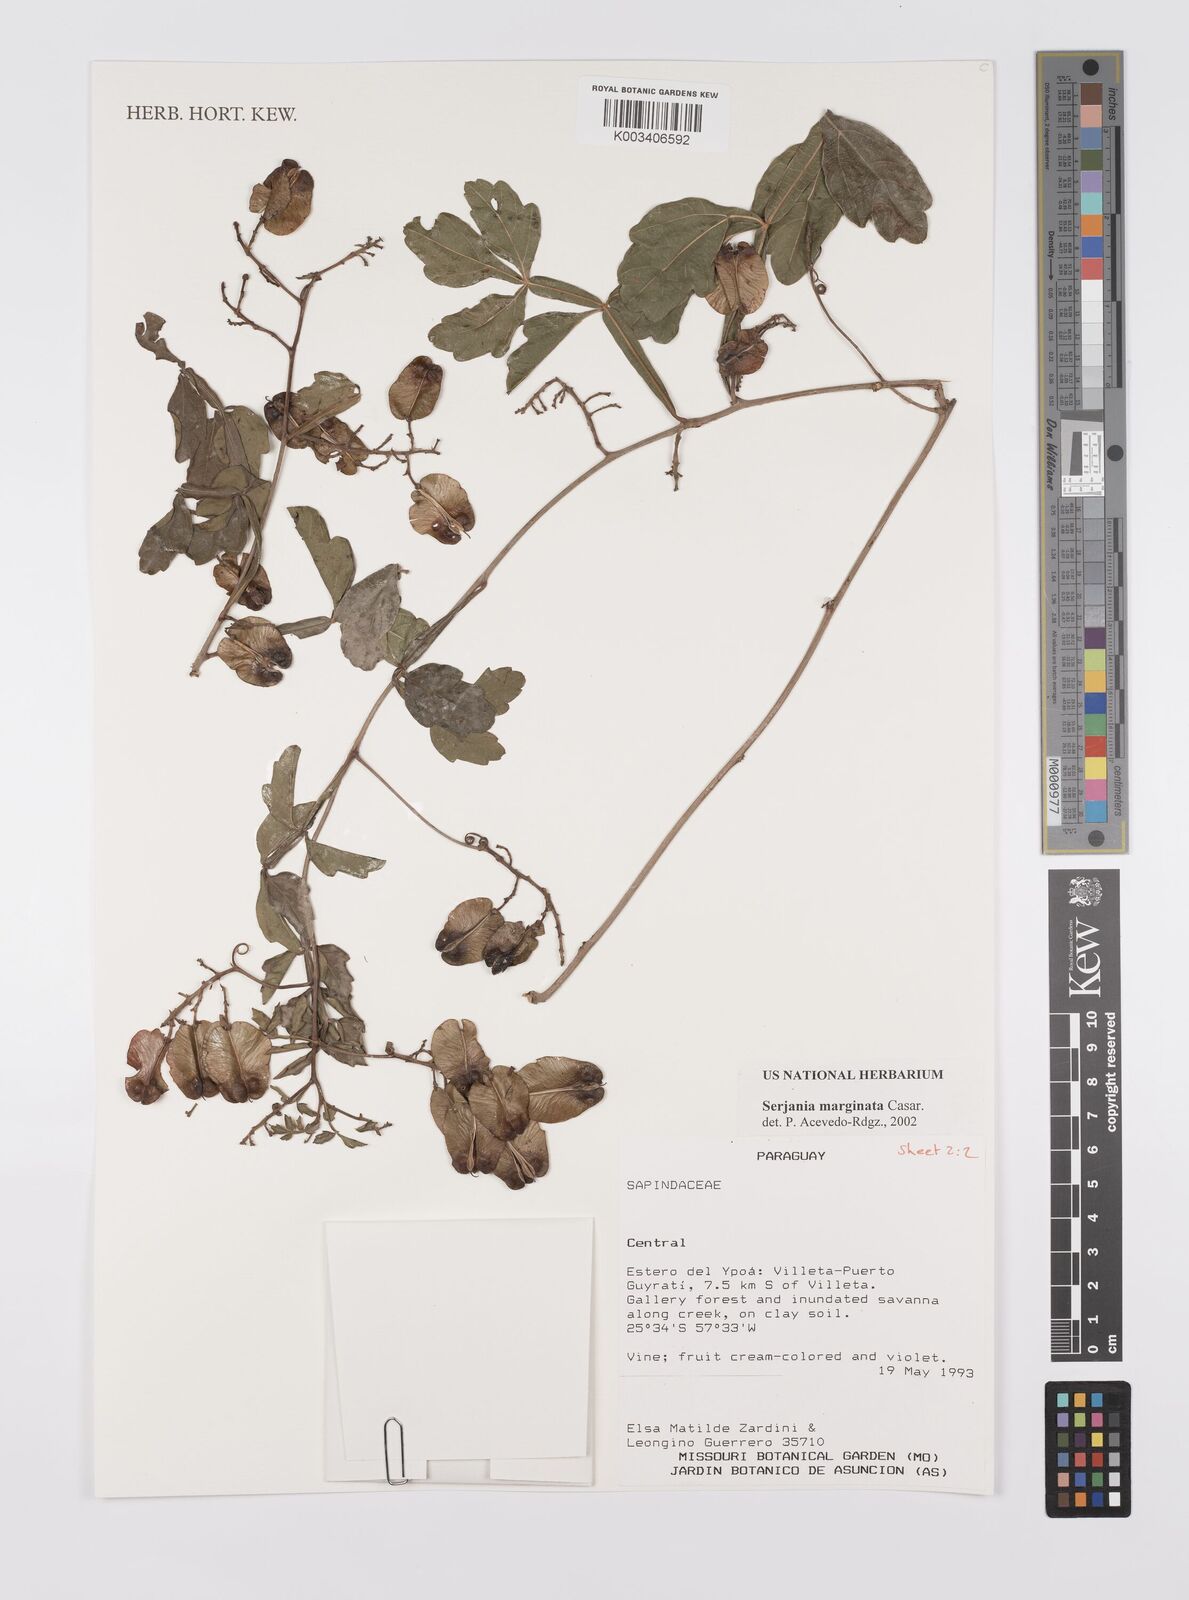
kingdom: Plantae
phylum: Tracheophyta
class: Magnoliopsida
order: Sapindales
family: Sapindaceae
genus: Serjania
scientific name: Serjania marginata
